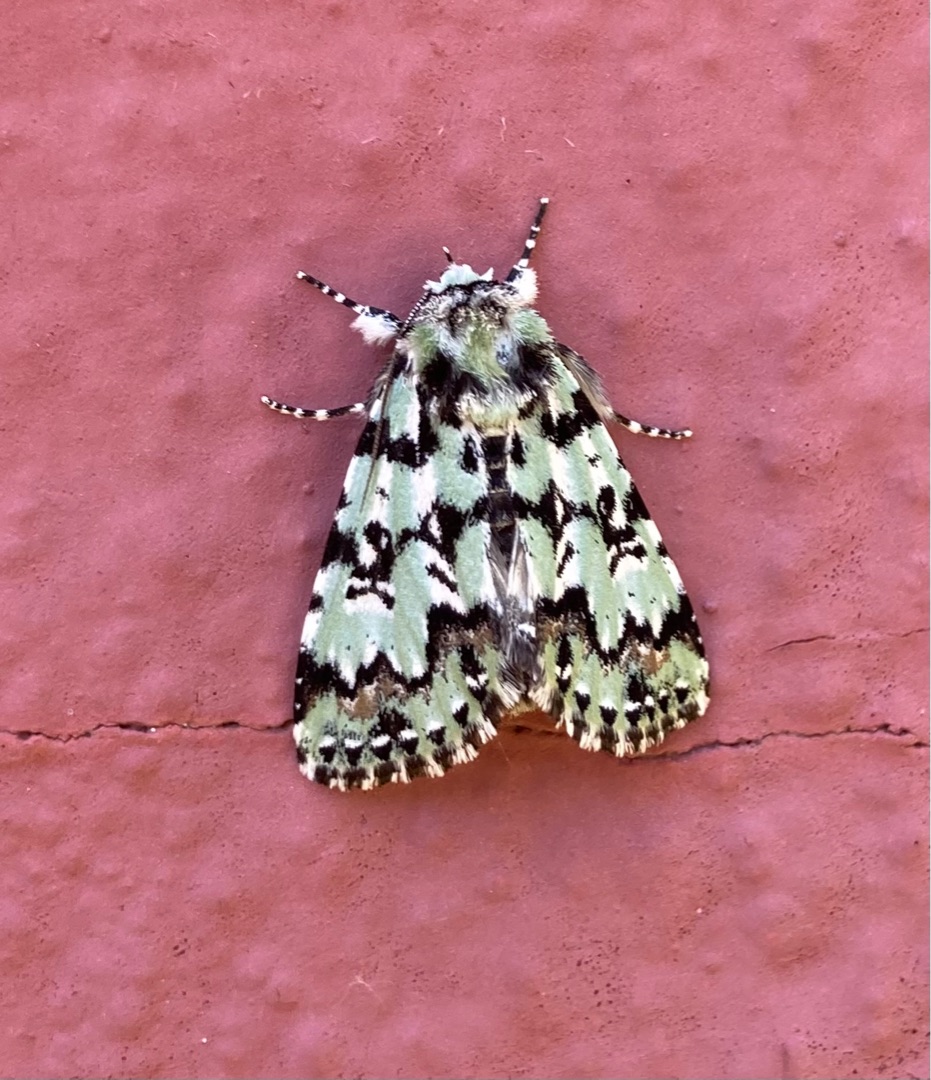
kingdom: Animalia
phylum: Arthropoda
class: Insecta
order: Lepidoptera
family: Noctuidae
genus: Moma
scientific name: Moma alpium
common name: Marmorugle
